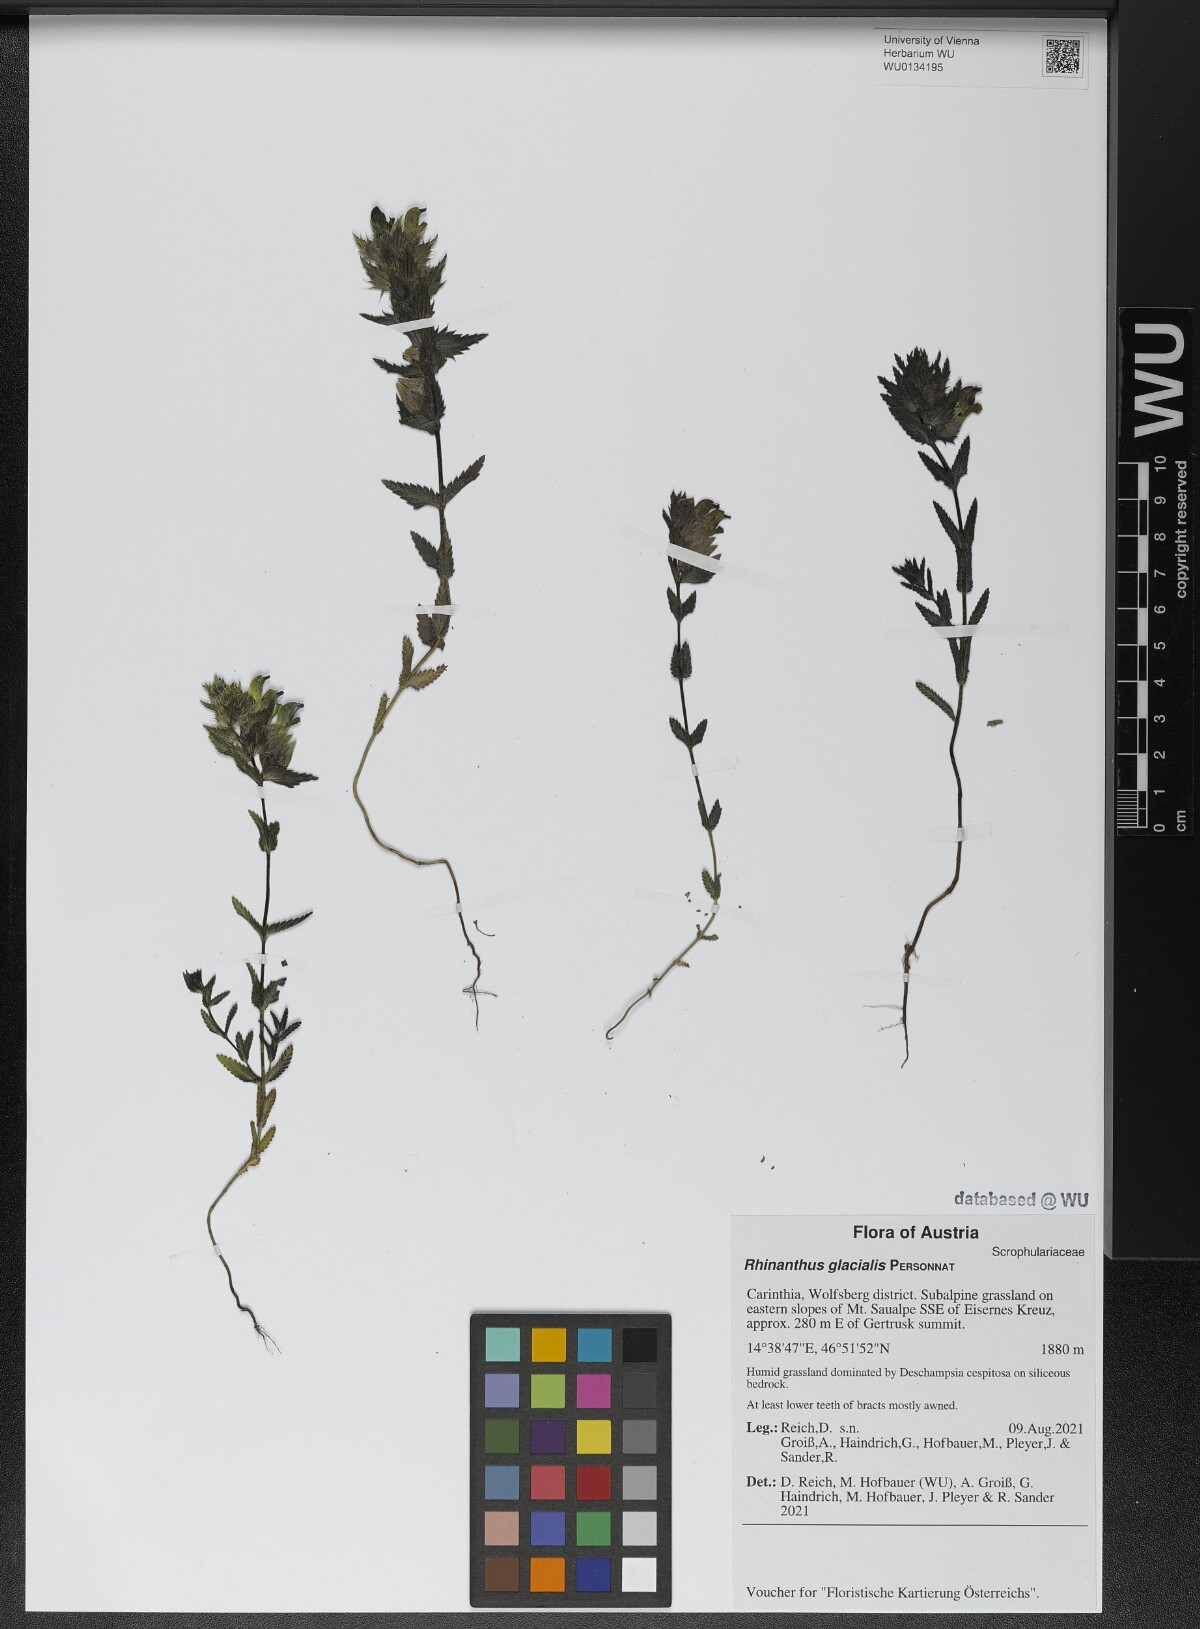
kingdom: Plantae
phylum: Tracheophyta
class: Magnoliopsida
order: Lamiales
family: Orobanchaceae
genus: Rhinanthus
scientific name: Rhinanthus glacialis
